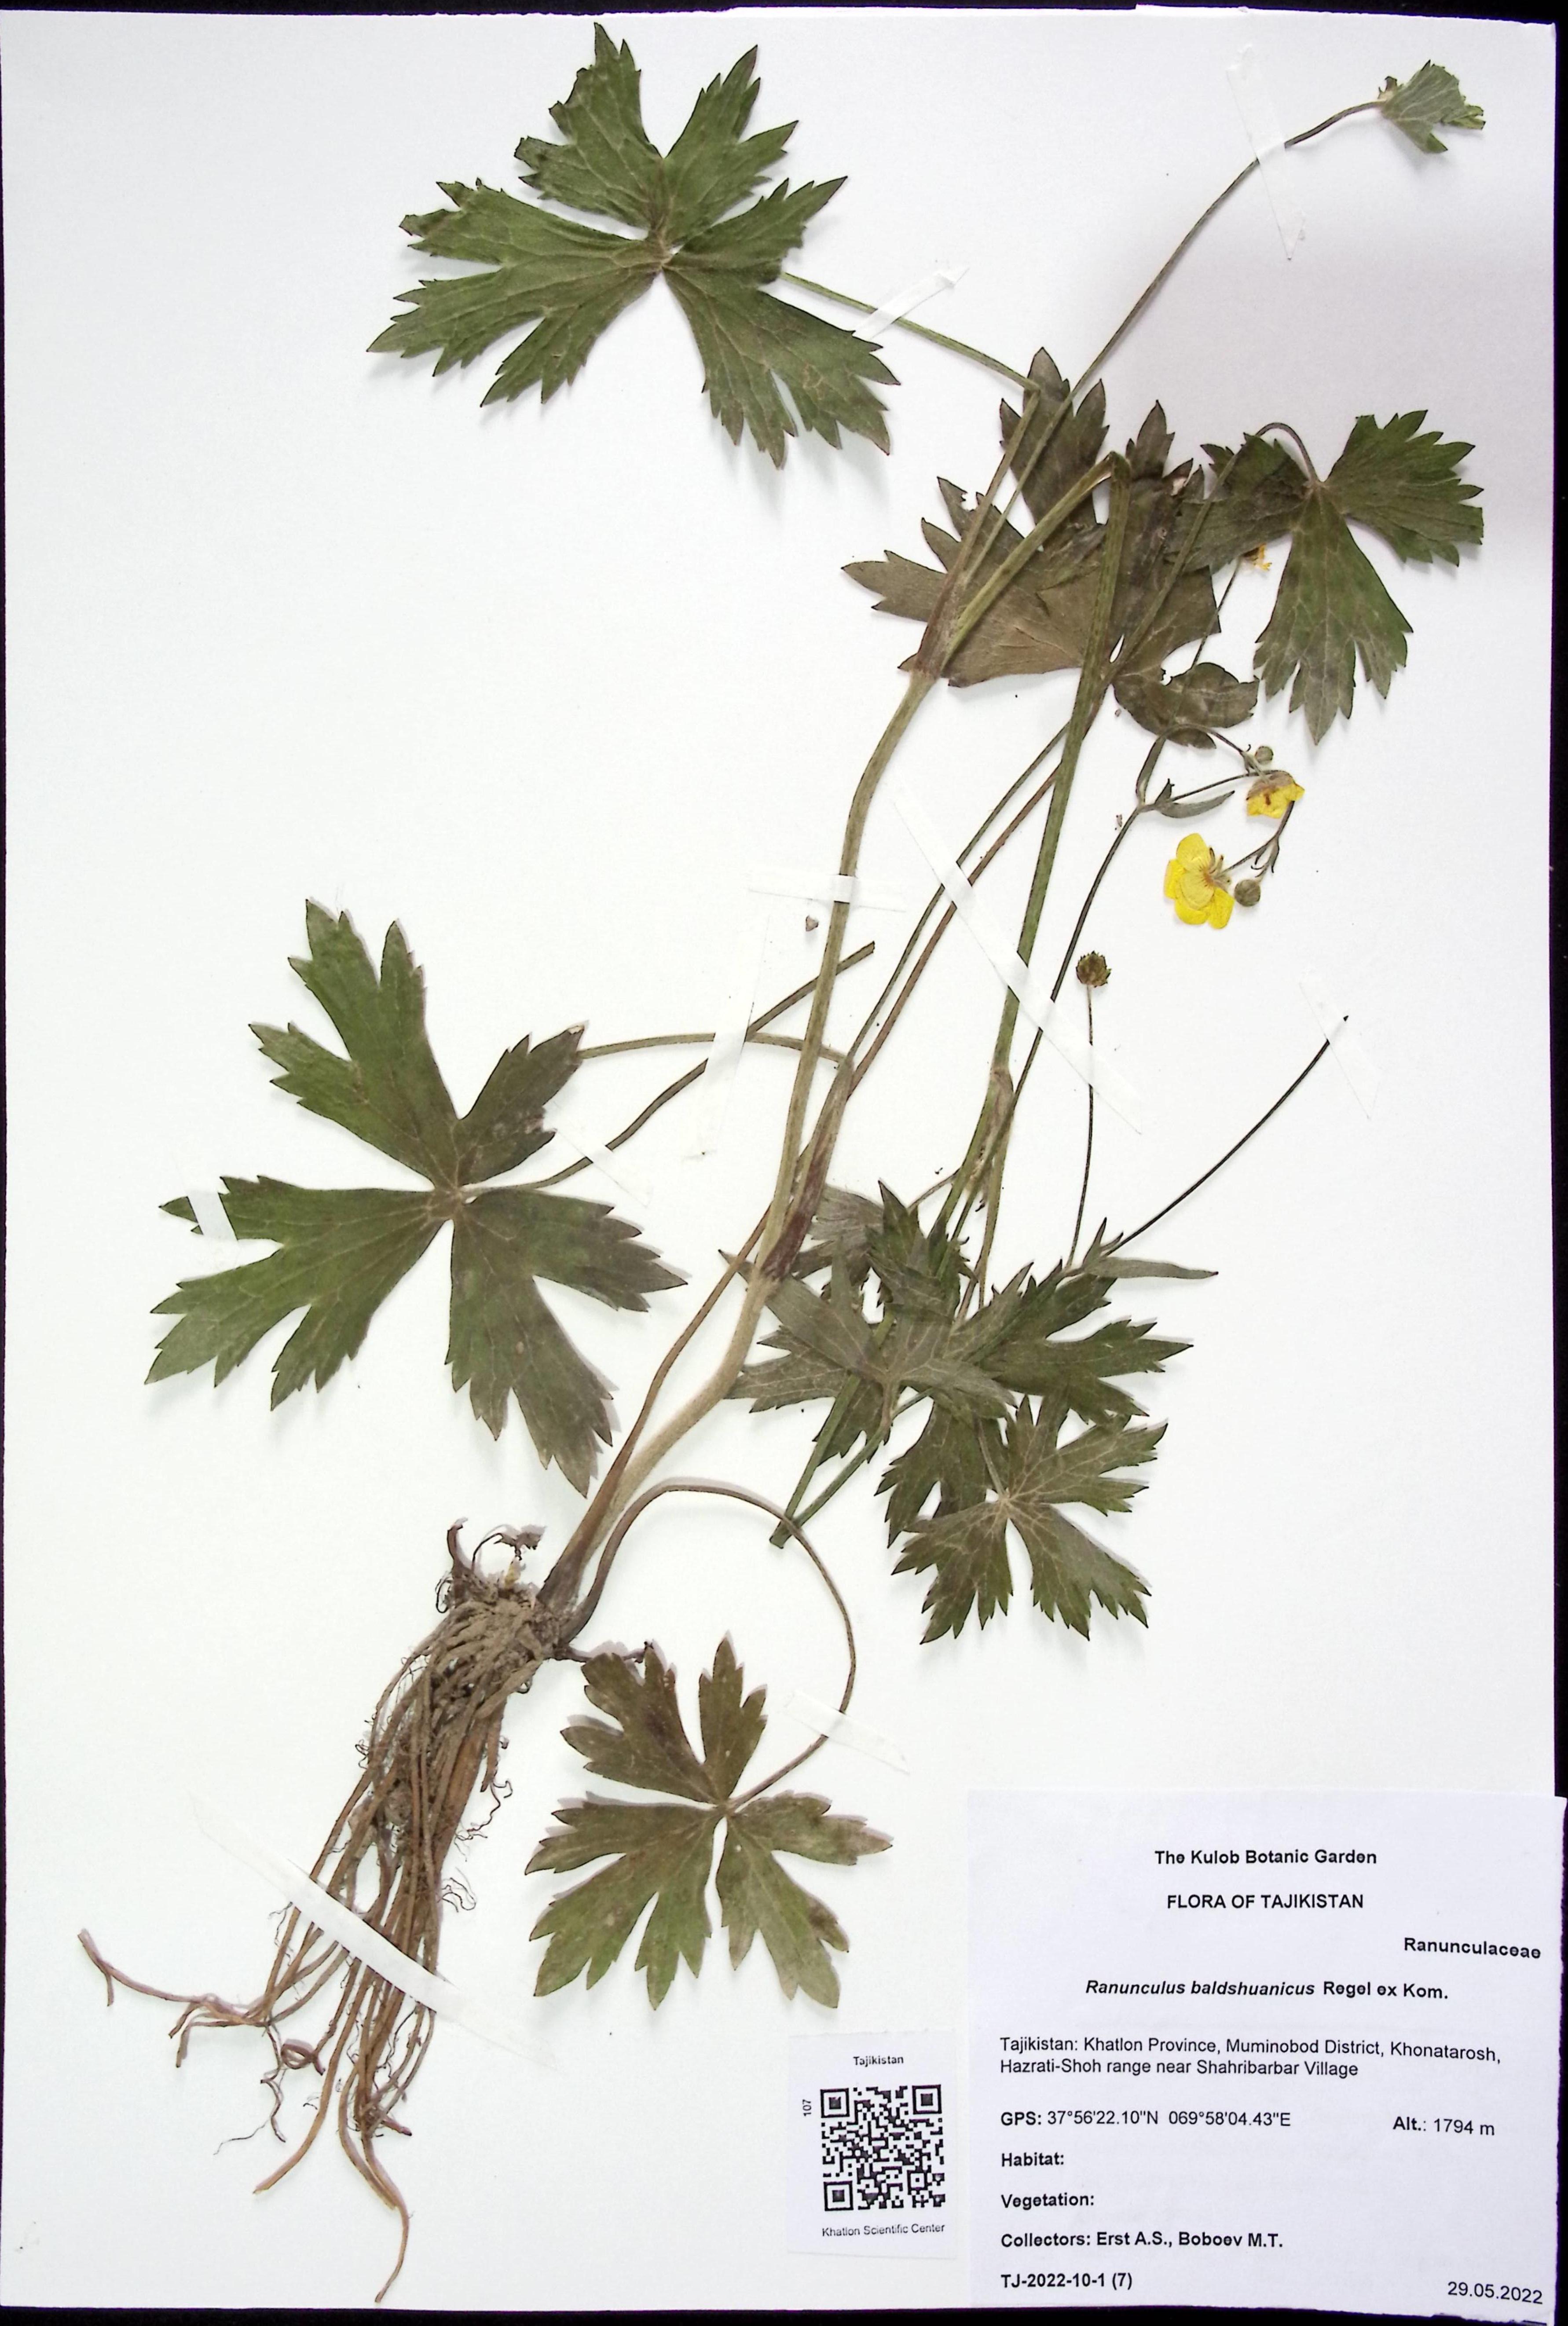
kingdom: Plantae
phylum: Tracheophyta
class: Magnoliopsida
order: Ranunculales
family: Ranunculaceae
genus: Ranunculus
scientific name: Ranunculus baldshuanicus
